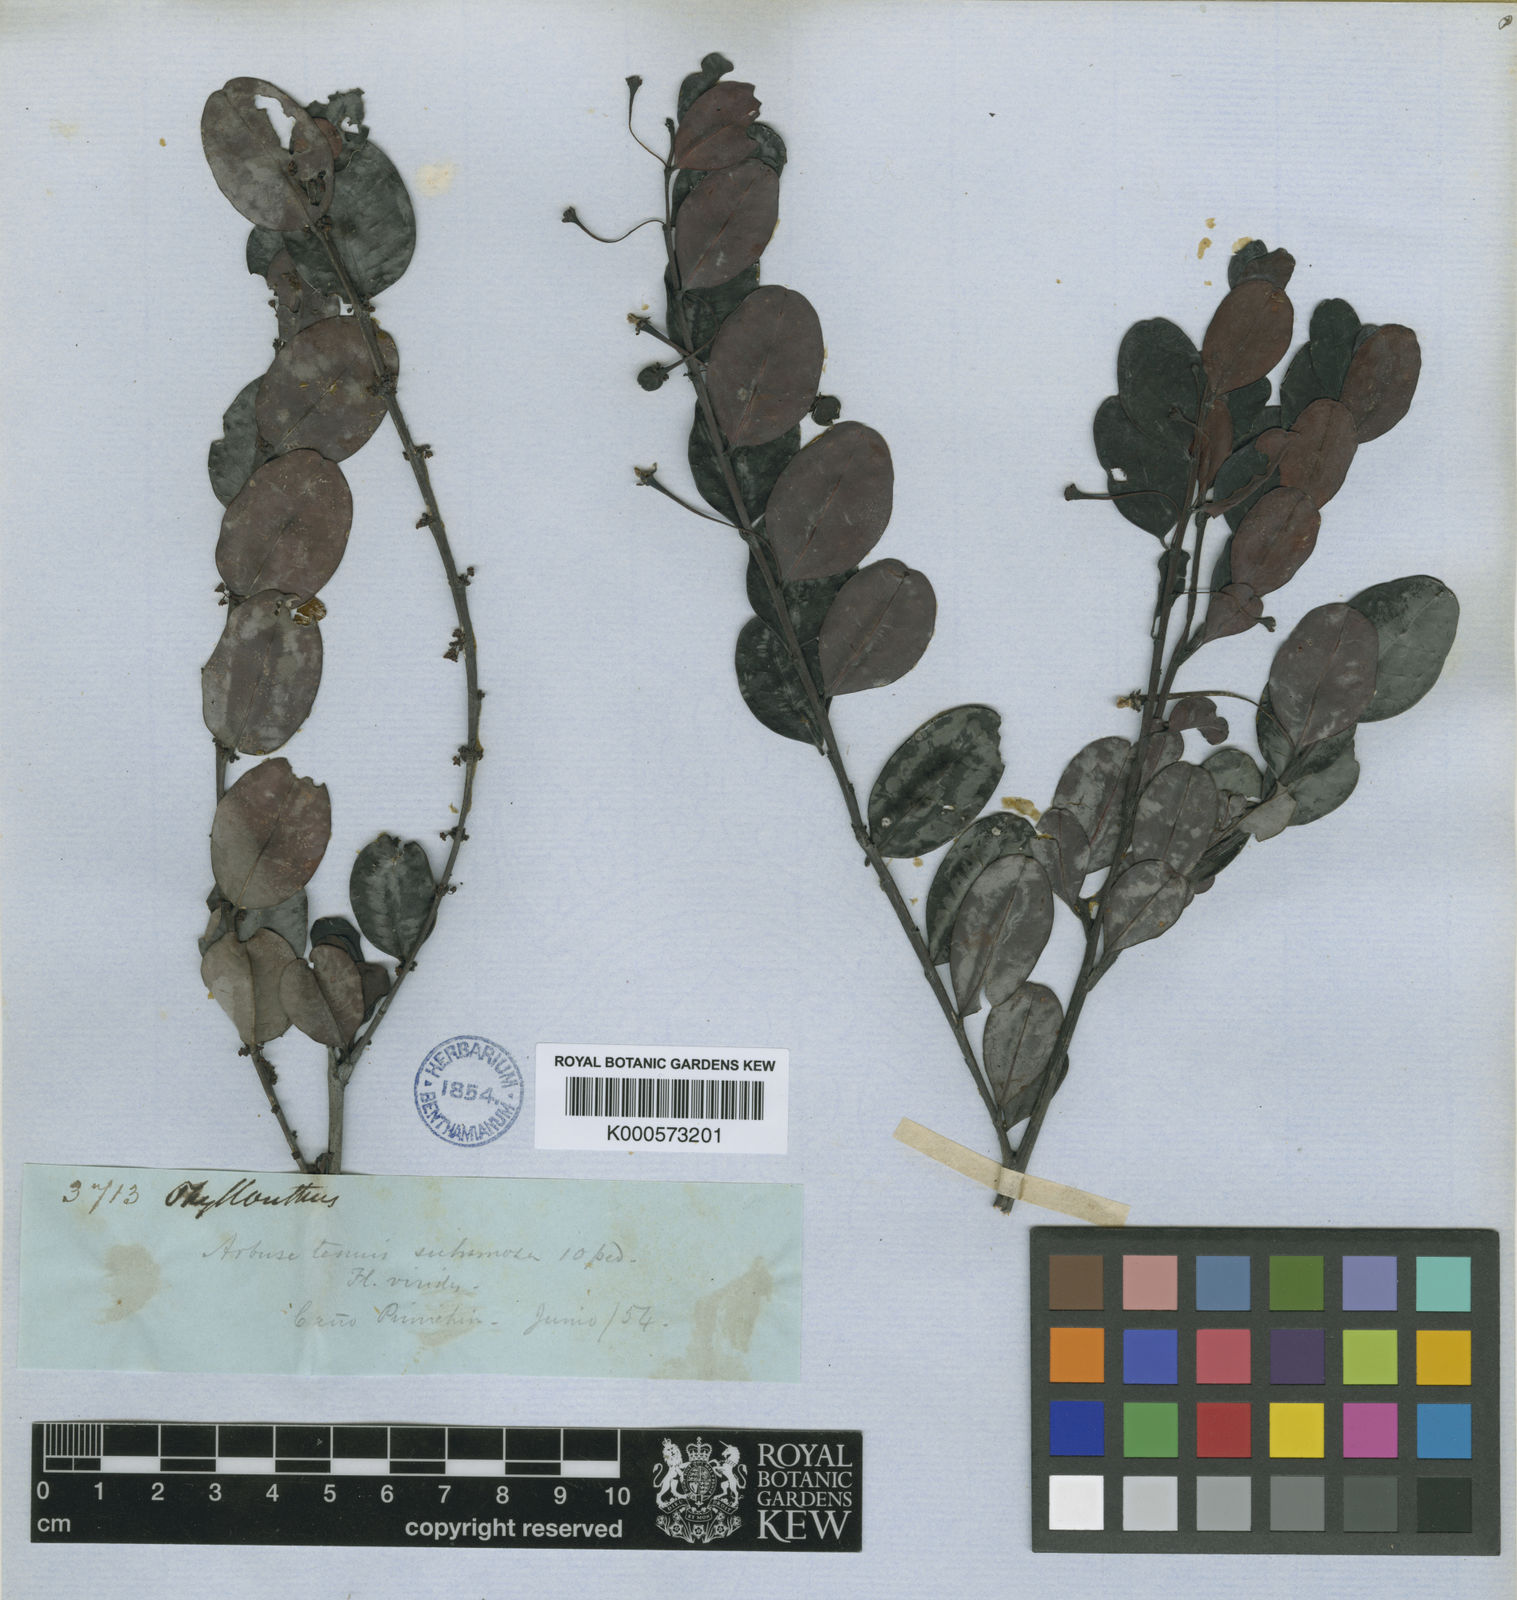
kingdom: Plantae
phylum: Tracheophyta
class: Magnoliopsida
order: Malpighiales
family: Phyllanthaceae
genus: Phyllanthus
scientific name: Phyllanthus
